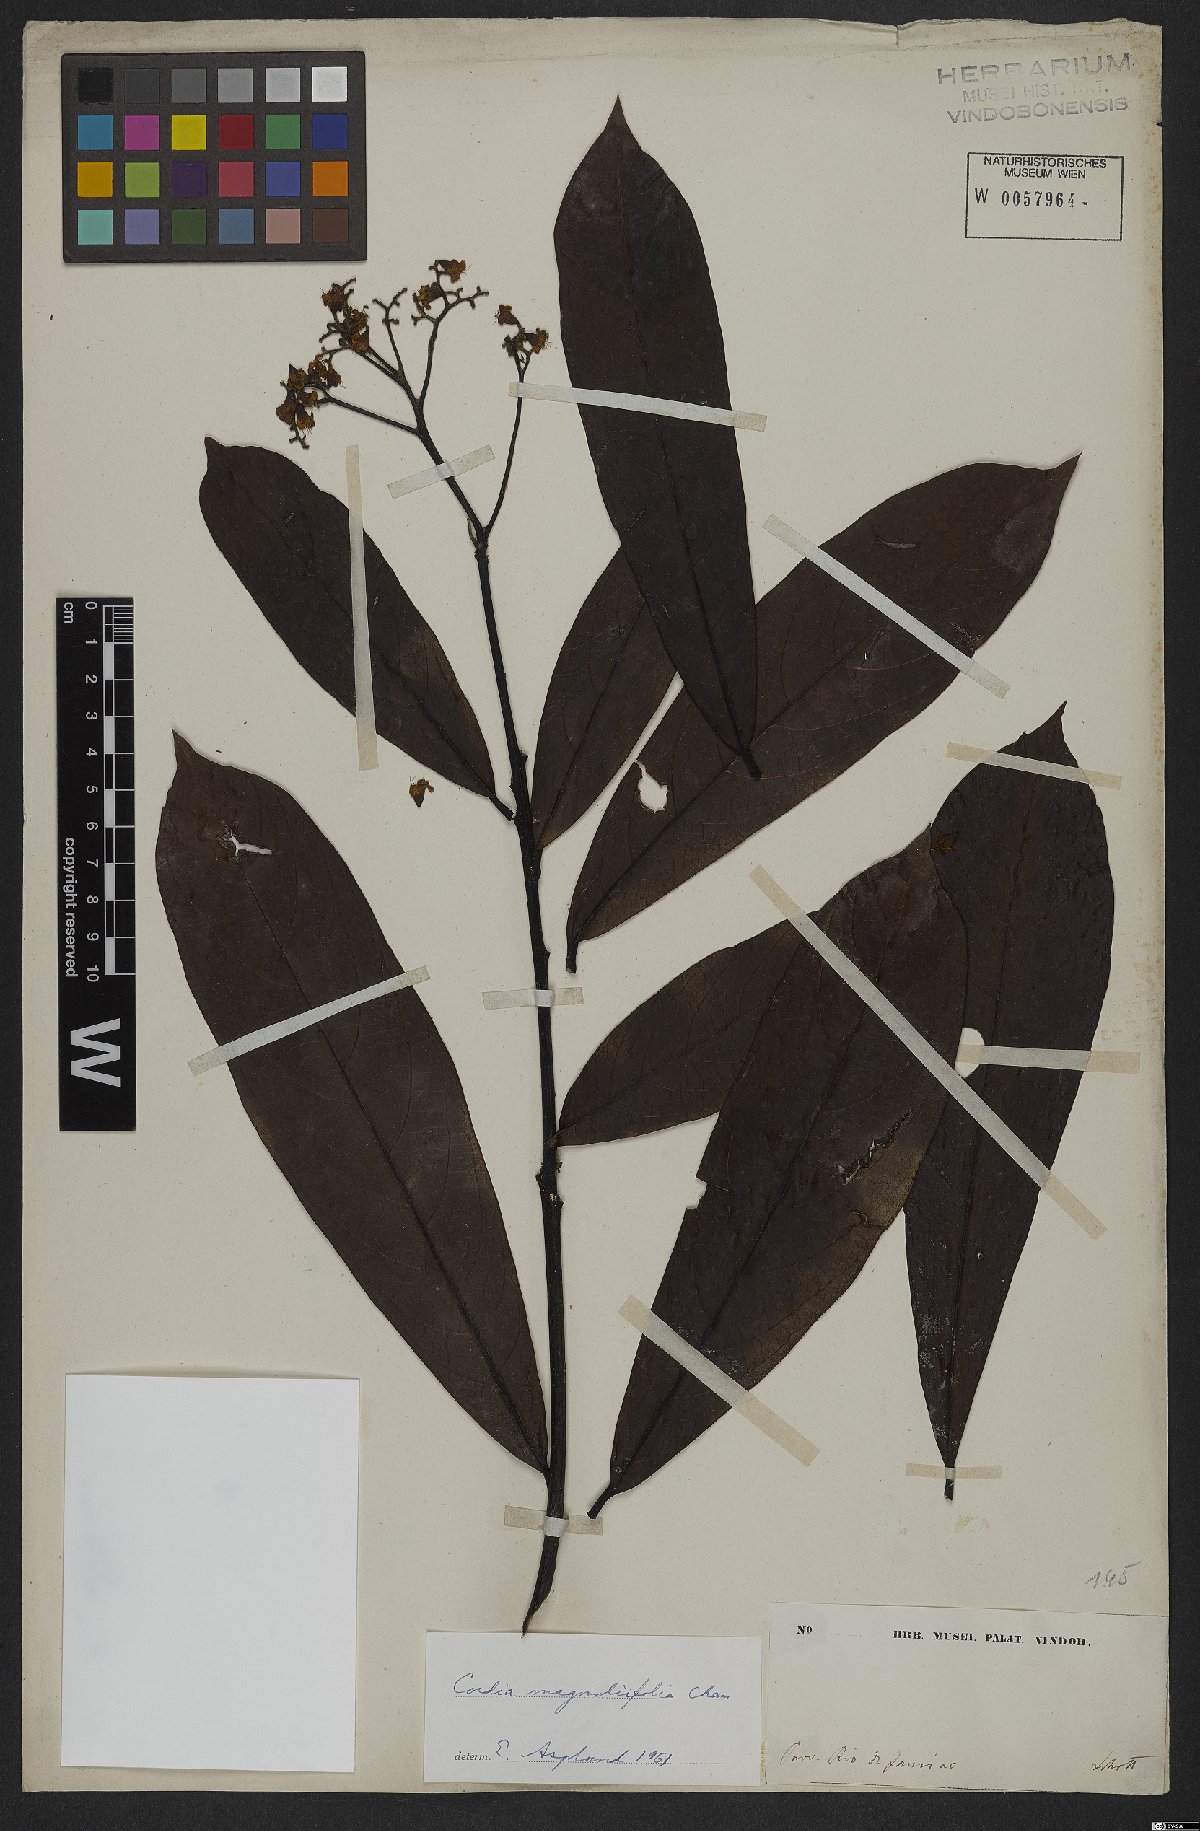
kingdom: Plantae
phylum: Tracheophyta
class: Magnoliopsida
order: Boraginales
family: Cordiaceae
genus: Cordia
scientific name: Cordia magnoliifolia
